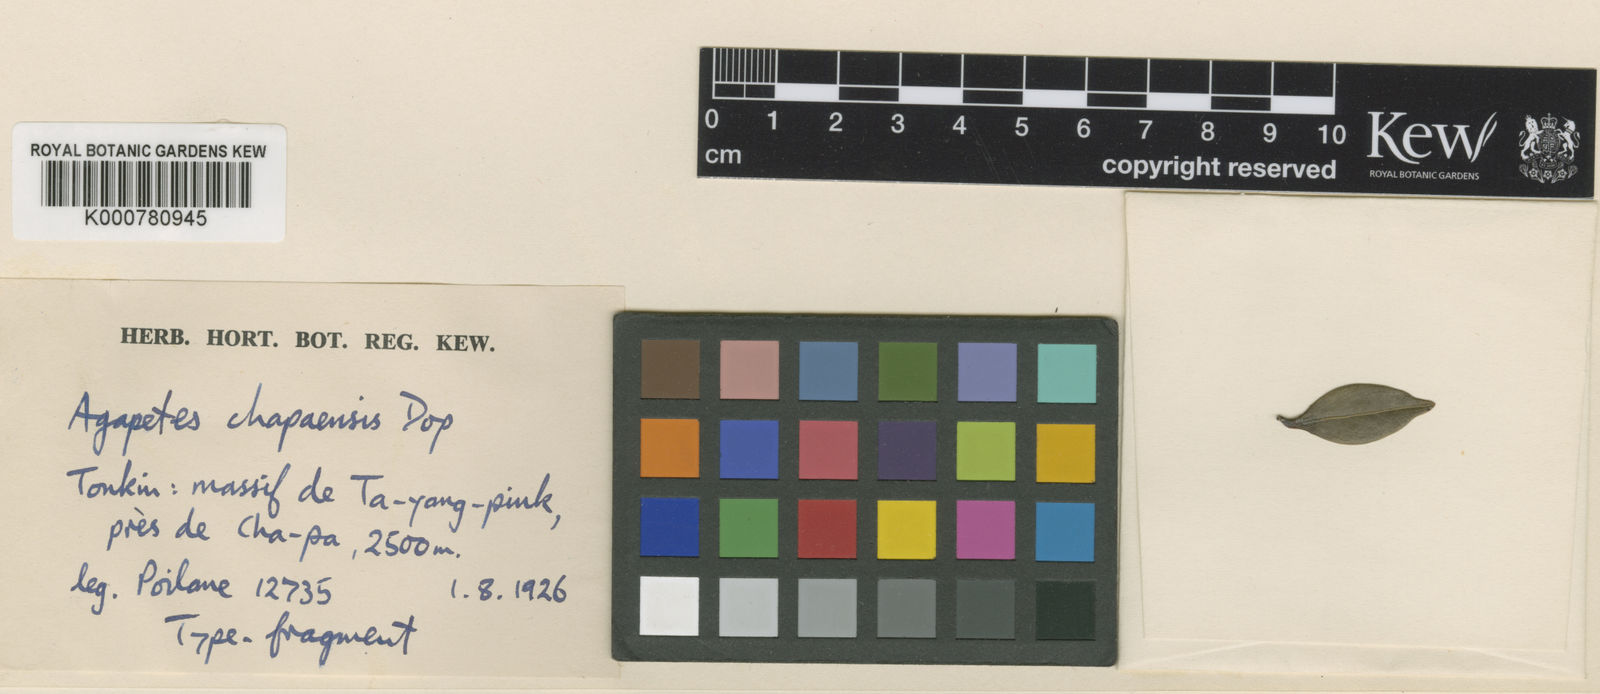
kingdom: Plantae
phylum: Tracheophyta
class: Magnoliopsida
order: Ericales
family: Ericaceae
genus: Agapetes
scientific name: Agapetes lobbii
